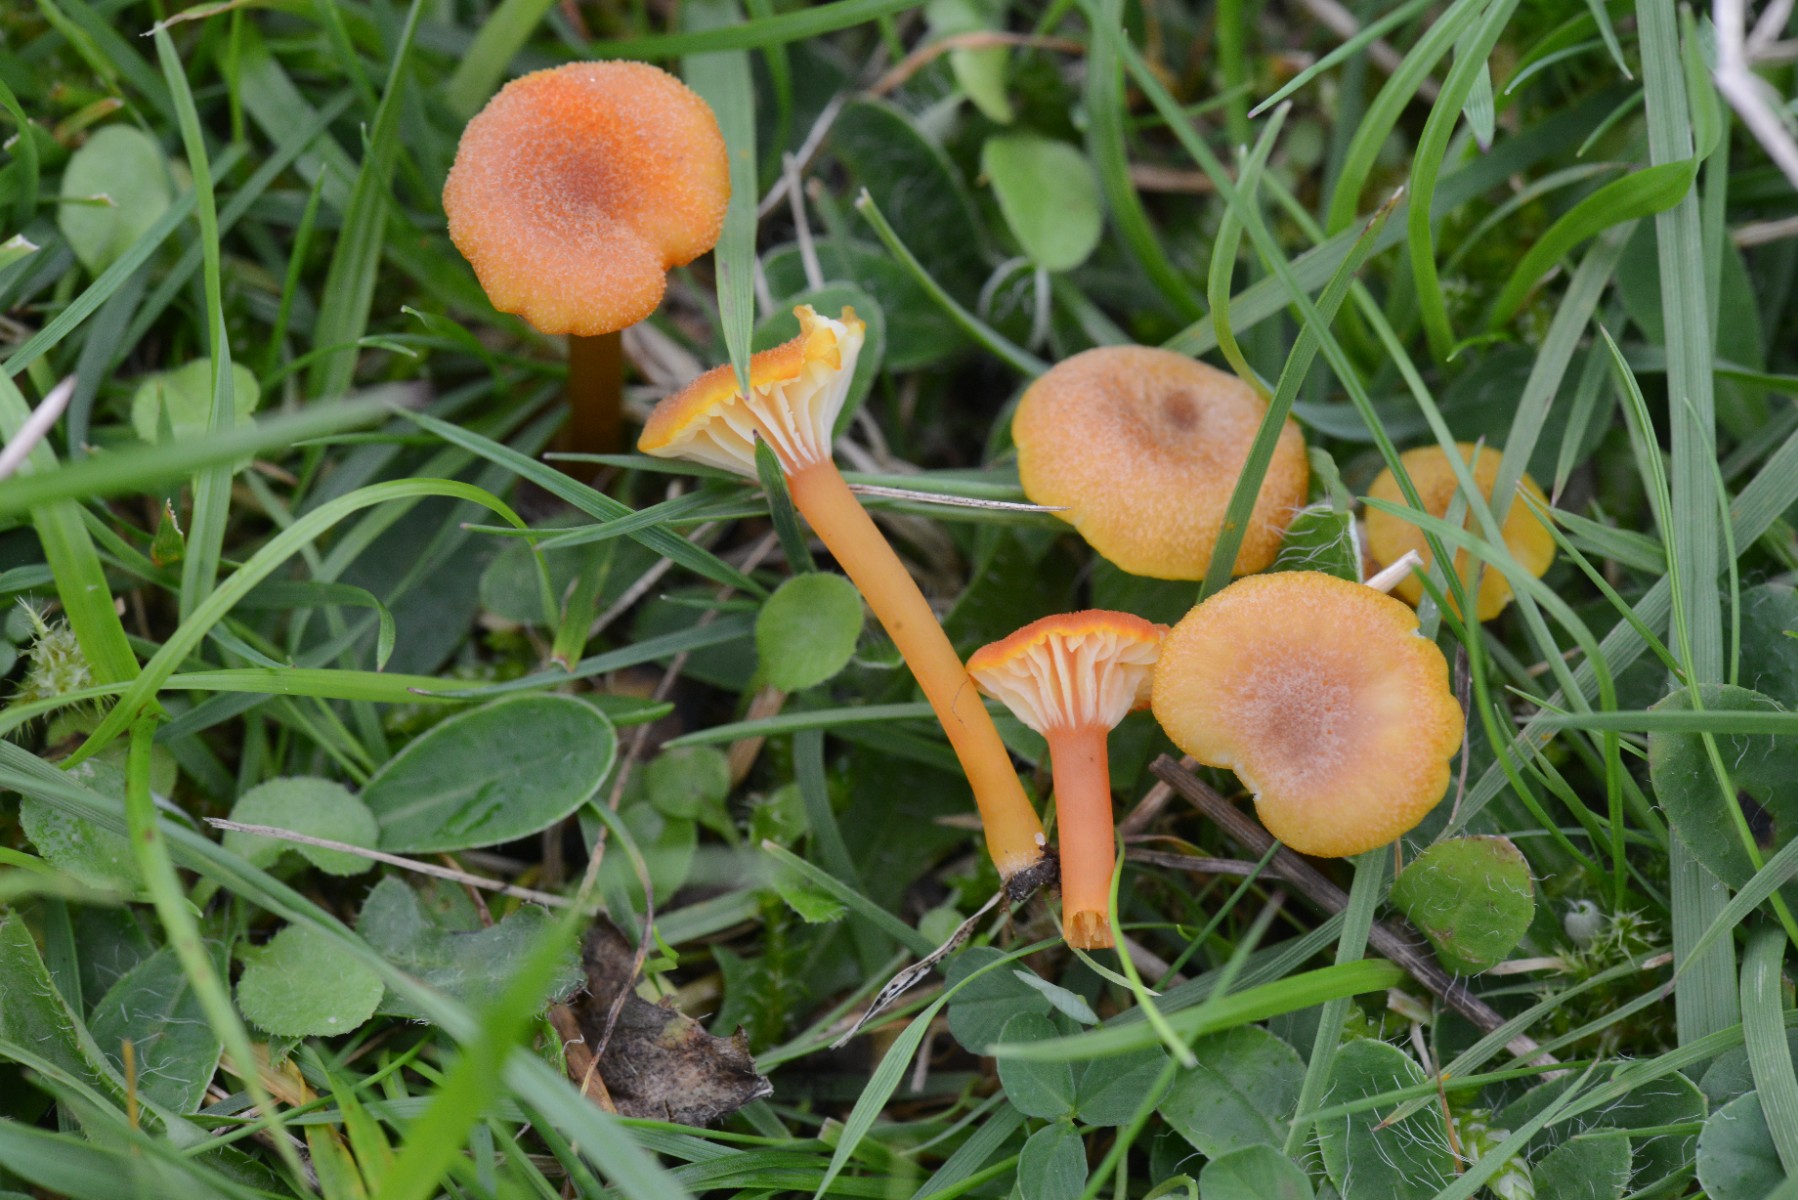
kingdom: Fungi
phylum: Basidiomycota
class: Agaricomycetes
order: Agaricales
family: Hygrophoraceae
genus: Hygrocybe
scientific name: Hygrocybe cantharellus
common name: kantarel-vokshat
